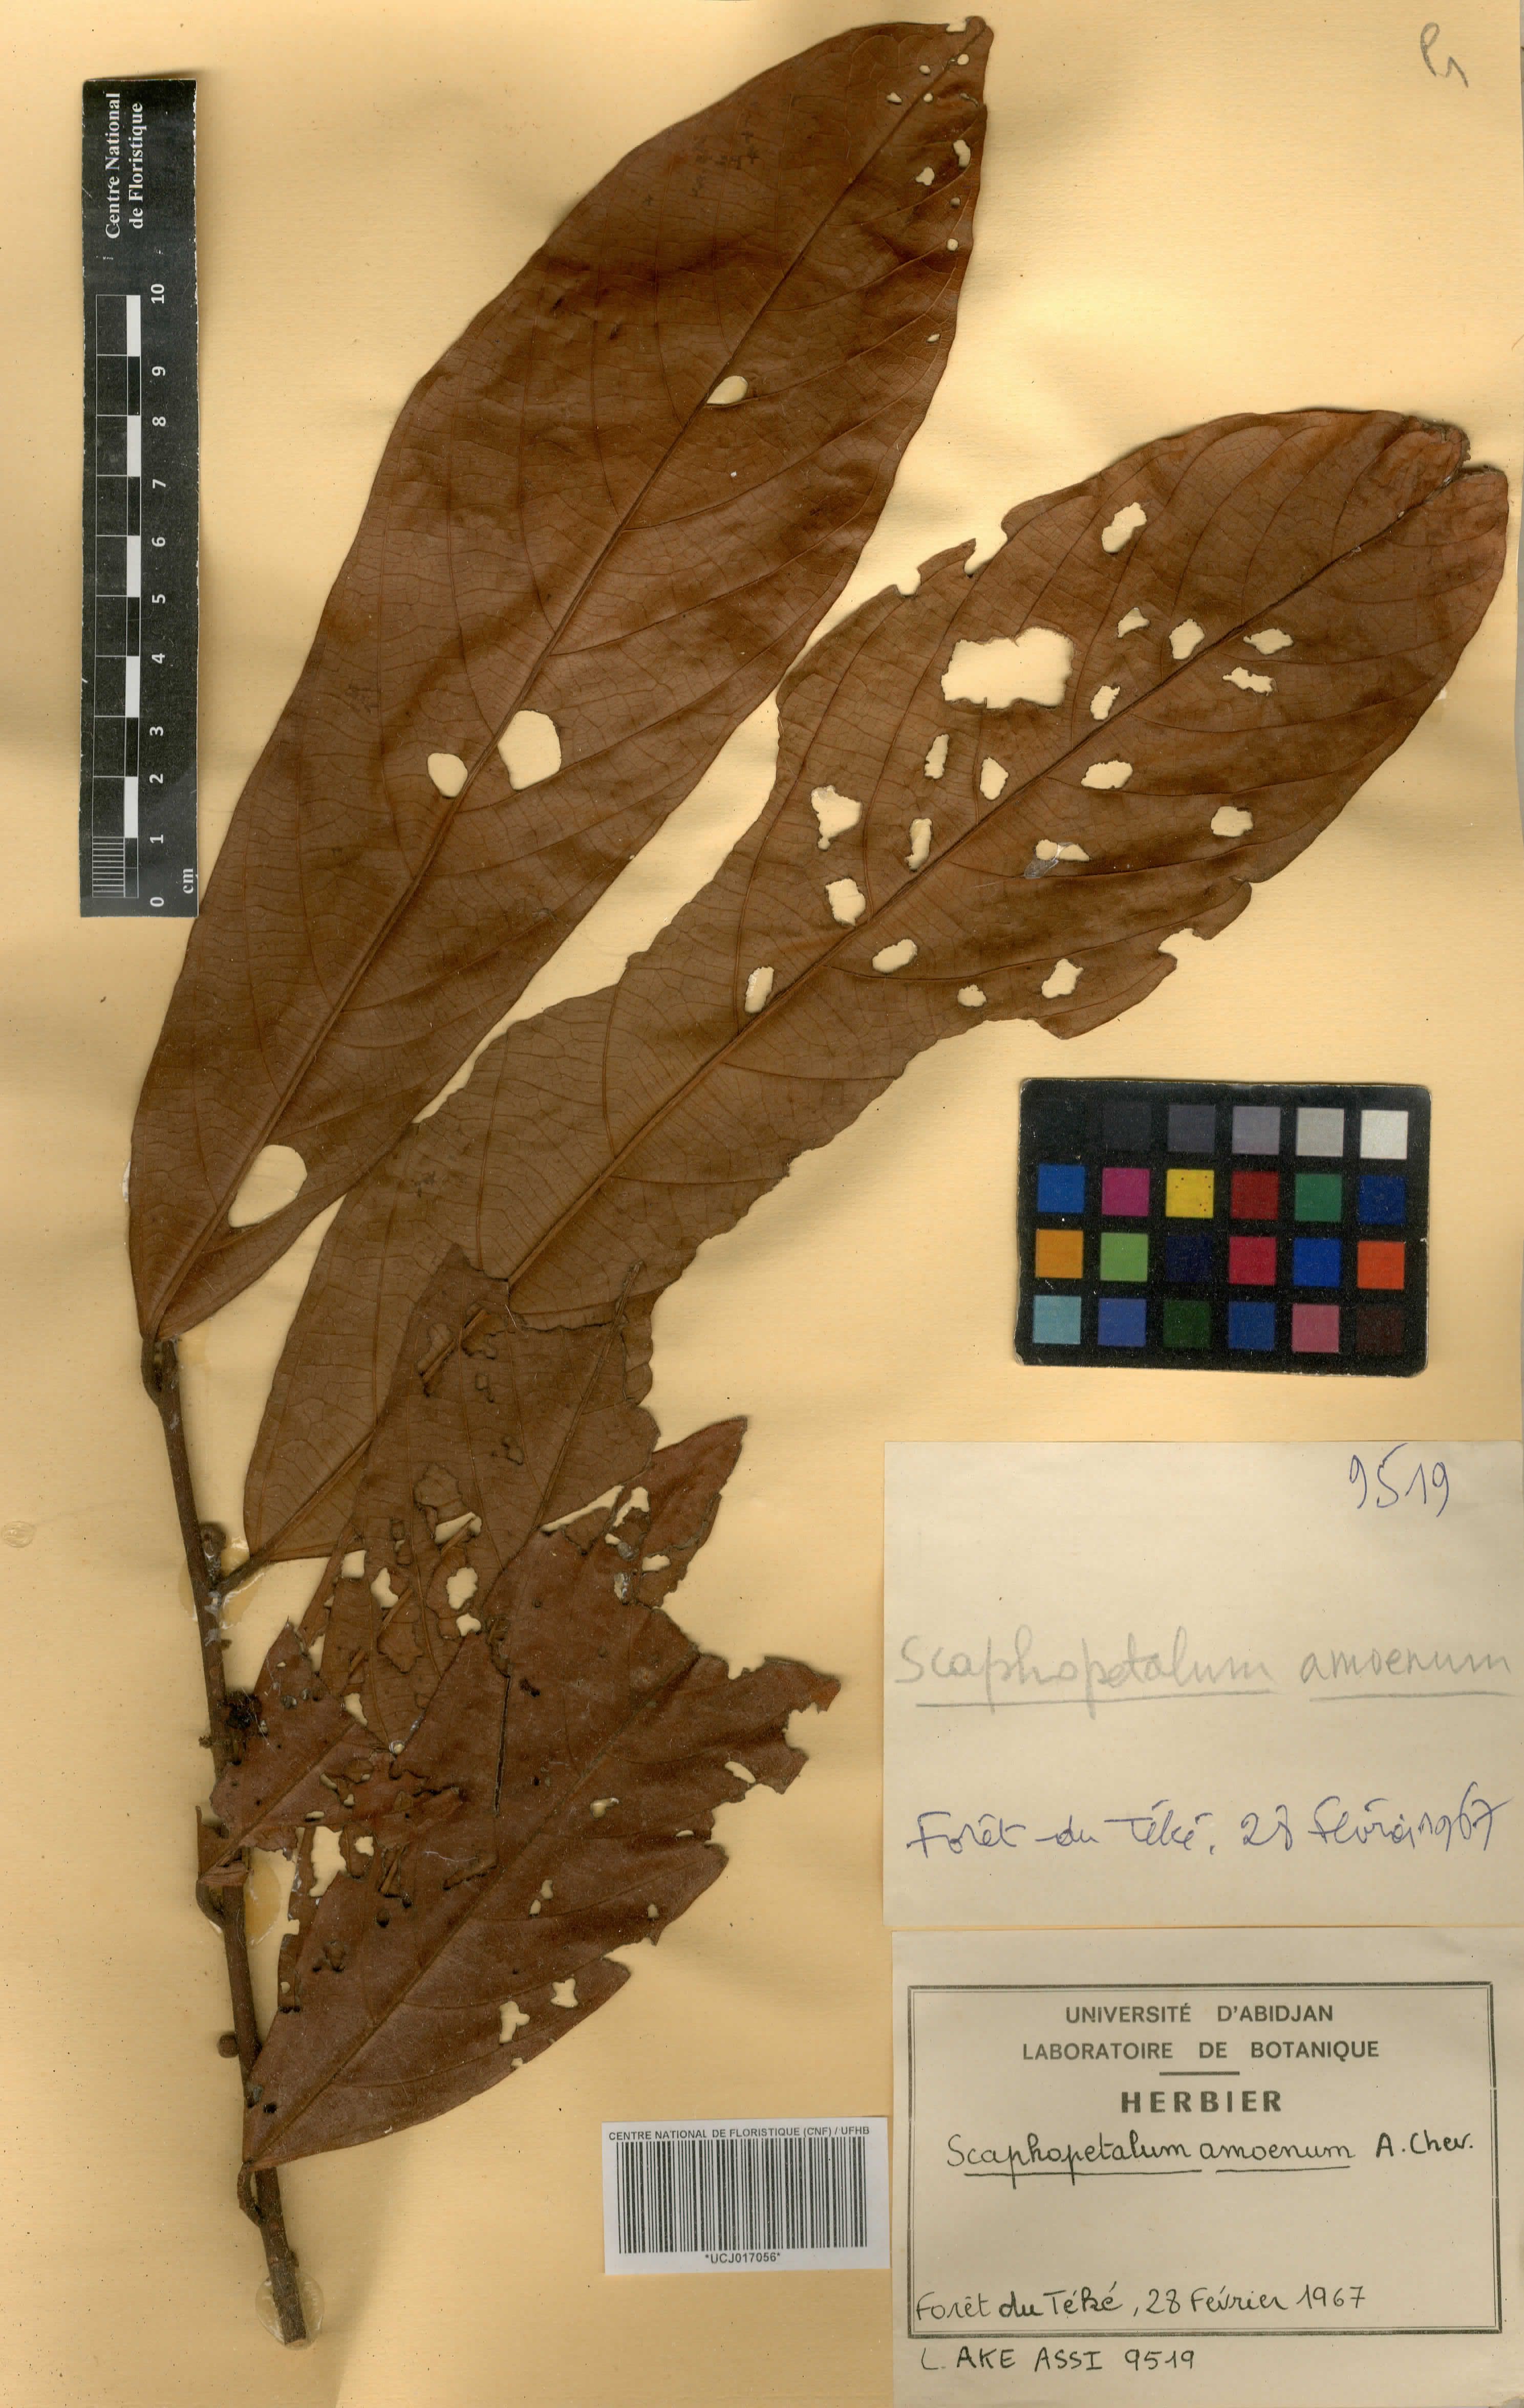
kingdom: Plantae
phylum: Tracheophyta
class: Magnoliopsida
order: Malvales
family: Malvaceae
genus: Scaphopetalum
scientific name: Scaphopetalum amoenum
